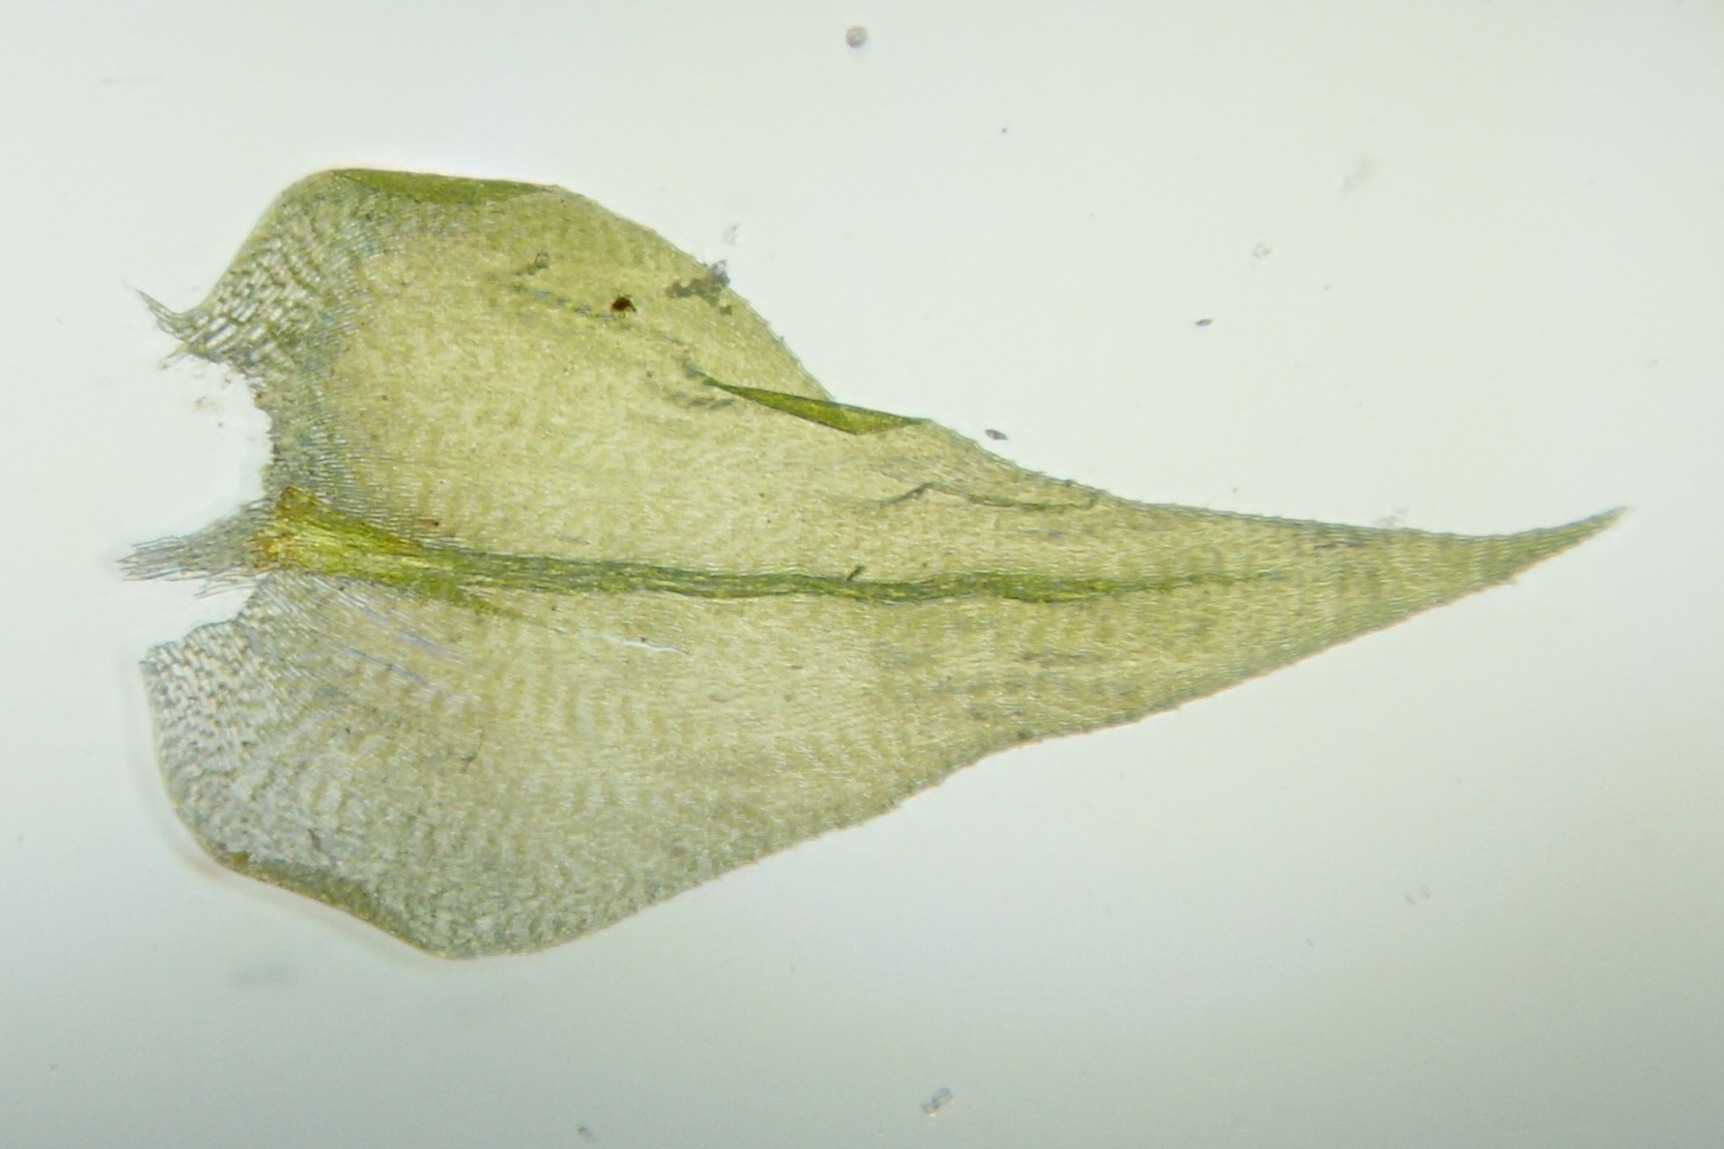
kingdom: Plantae
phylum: Bryophyta
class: Bryopsida
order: Hypnales
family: Brachytheciaceae
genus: Eurhynchium
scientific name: Eurhynchium striatum
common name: Stribet næbmos
